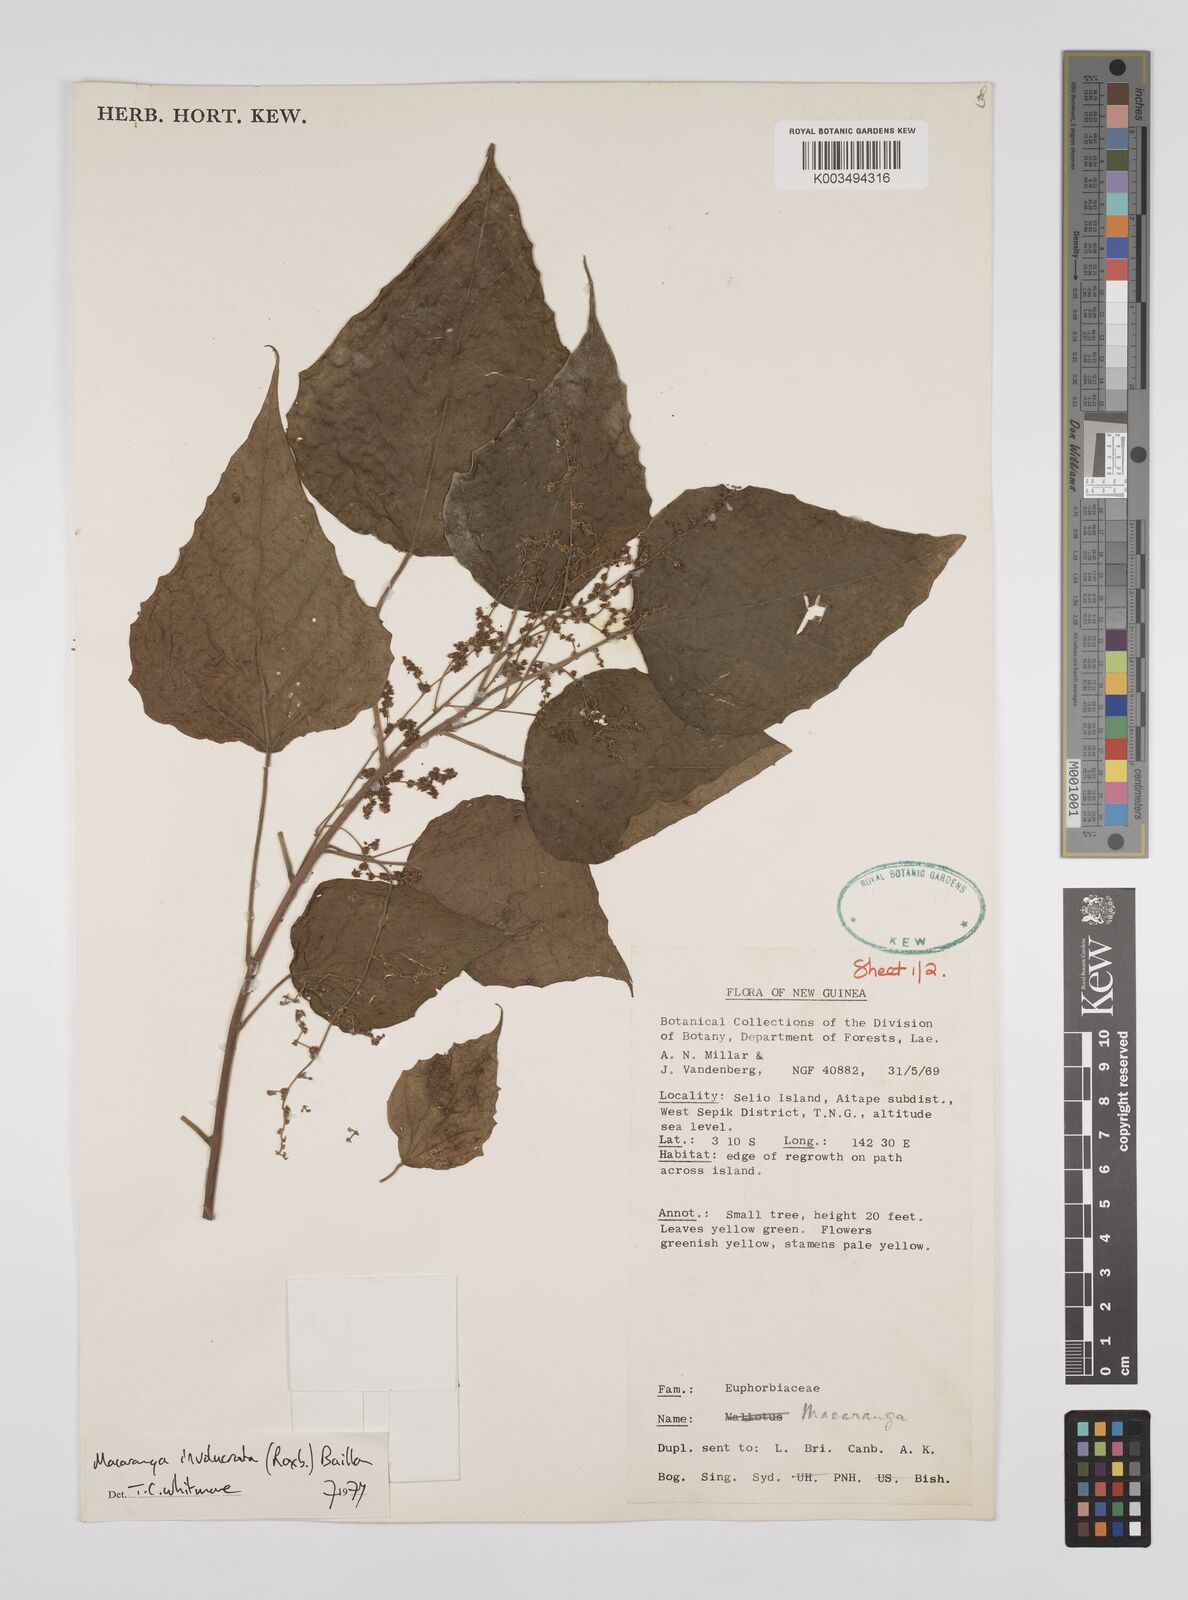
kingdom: Plantae
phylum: Tracheophyta
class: Magnoliopsida
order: Malpighiales
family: Euphorbiaceae
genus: Macaranga
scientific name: Macaranga involucrata
